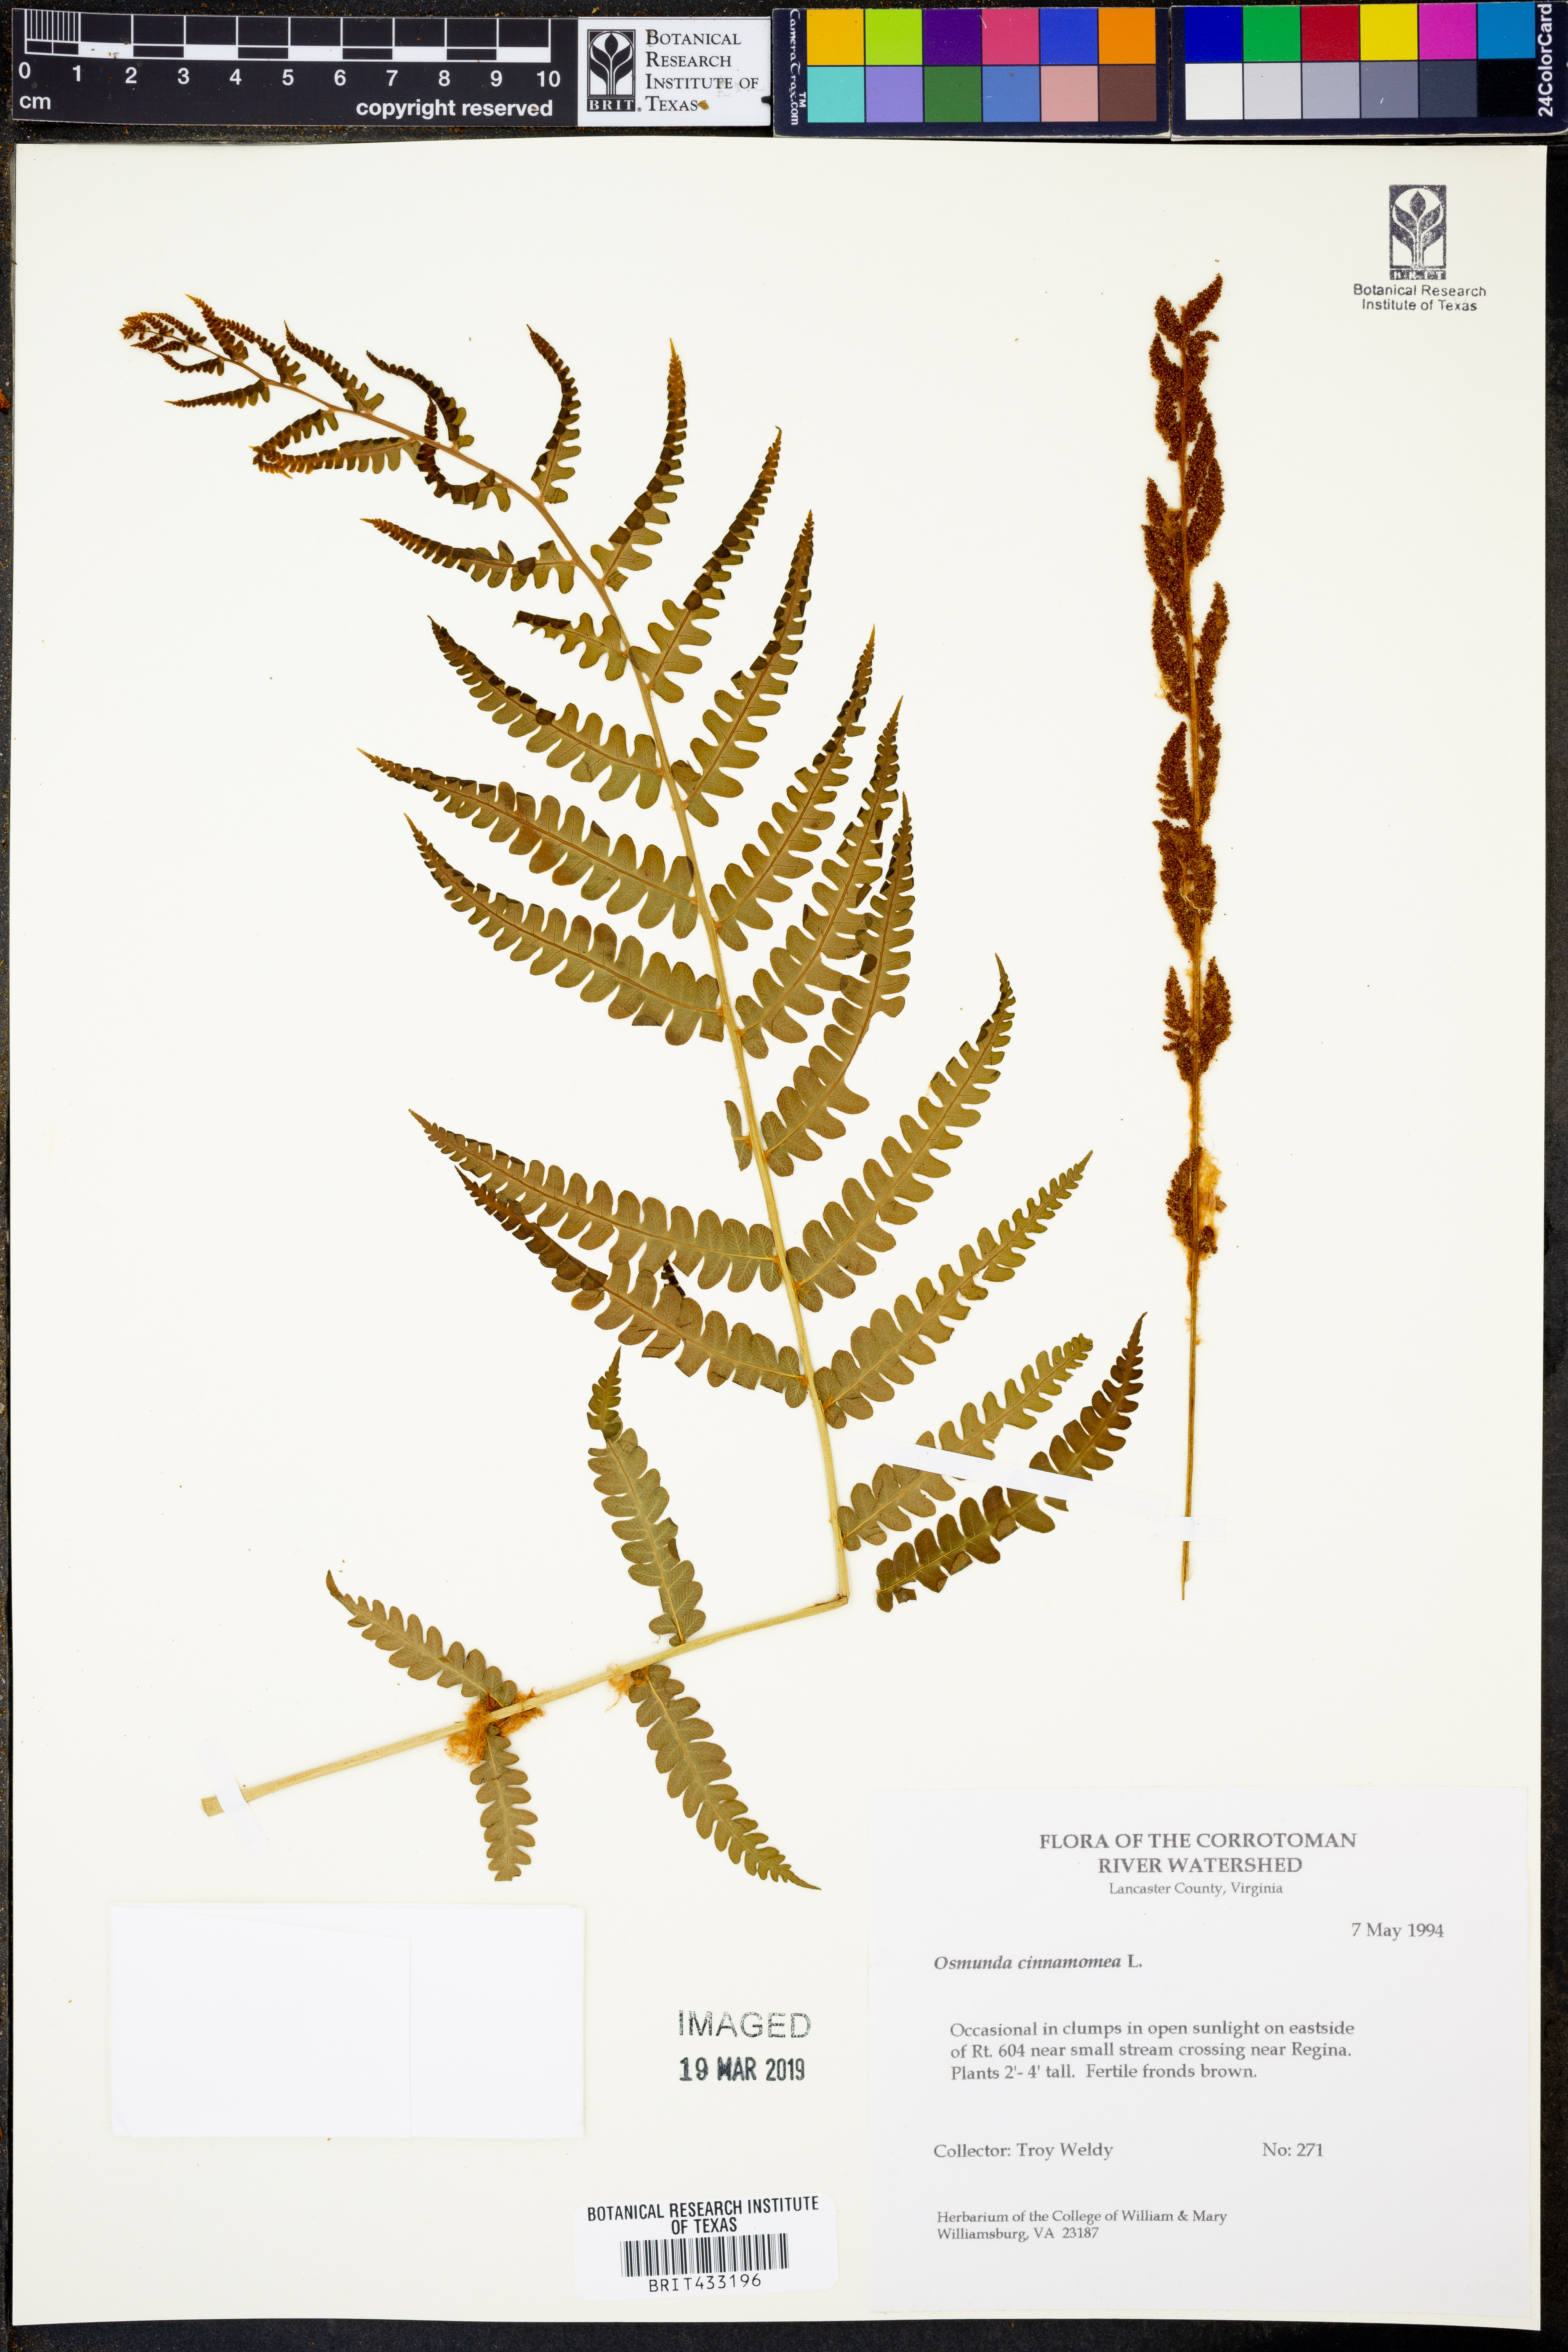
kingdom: Plantae
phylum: Tracheophyta
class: Polypodiopsida
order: Osmundales
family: Osmundaceae
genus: Osmundastrum
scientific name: Osmundastrum cinnamomeum
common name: Cinnamon fern
